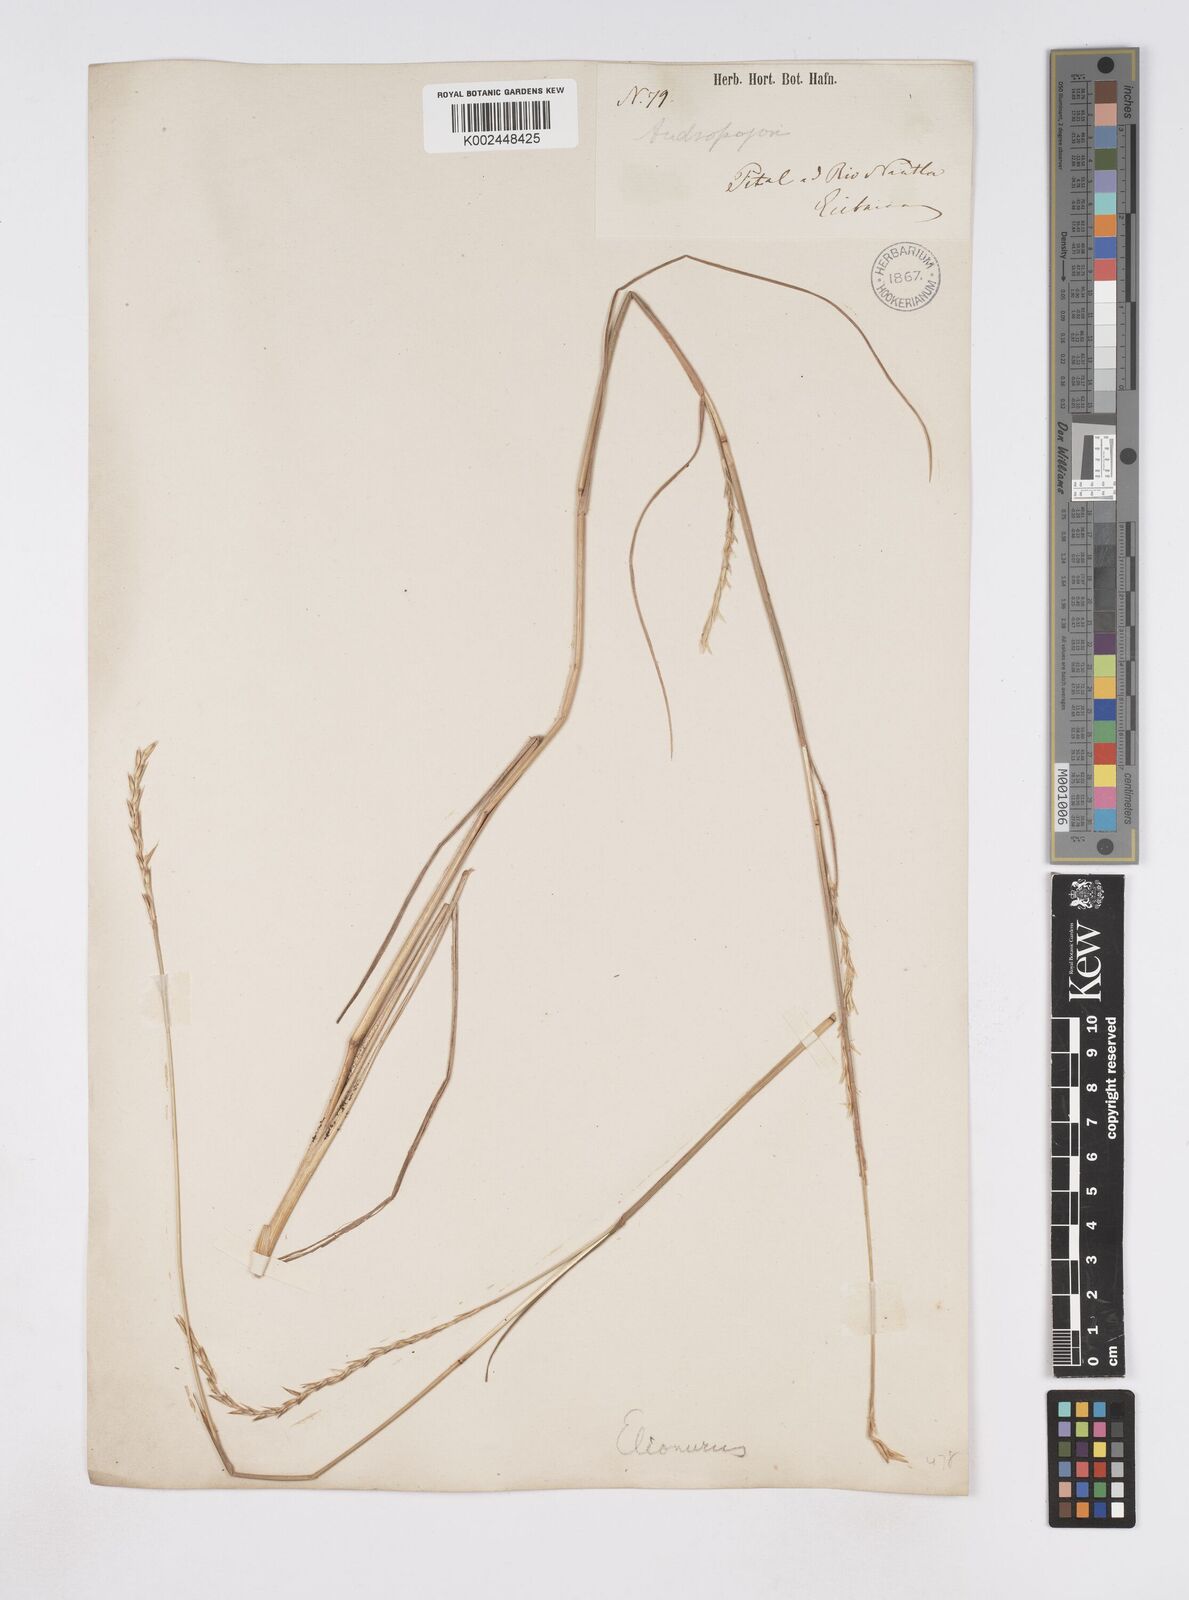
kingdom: Plantae
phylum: Tracheophyta
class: Liliopsida
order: Poales
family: Poaceae
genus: Elionurus
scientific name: Elionurus tripsacoides
